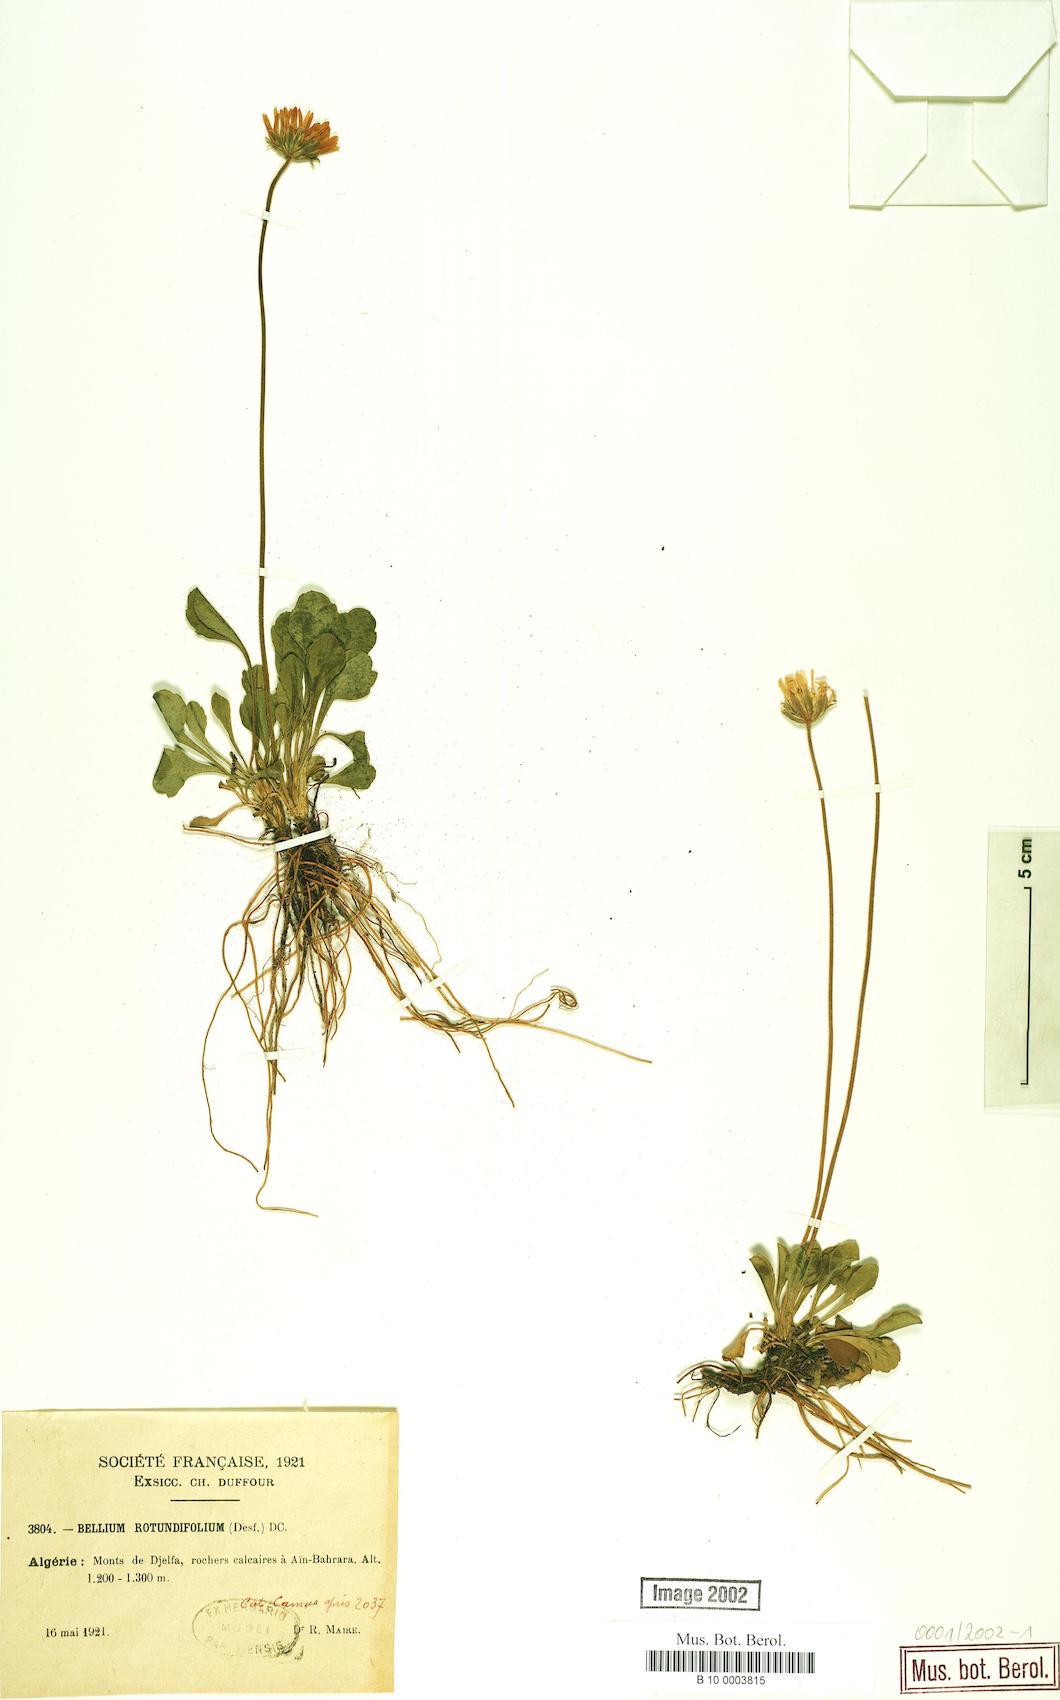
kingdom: Plantae
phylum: Tracheophyta
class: Magnoliopsida
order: Asterales
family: Asteraceae
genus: Bellis
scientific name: Bellis rotundifolia
